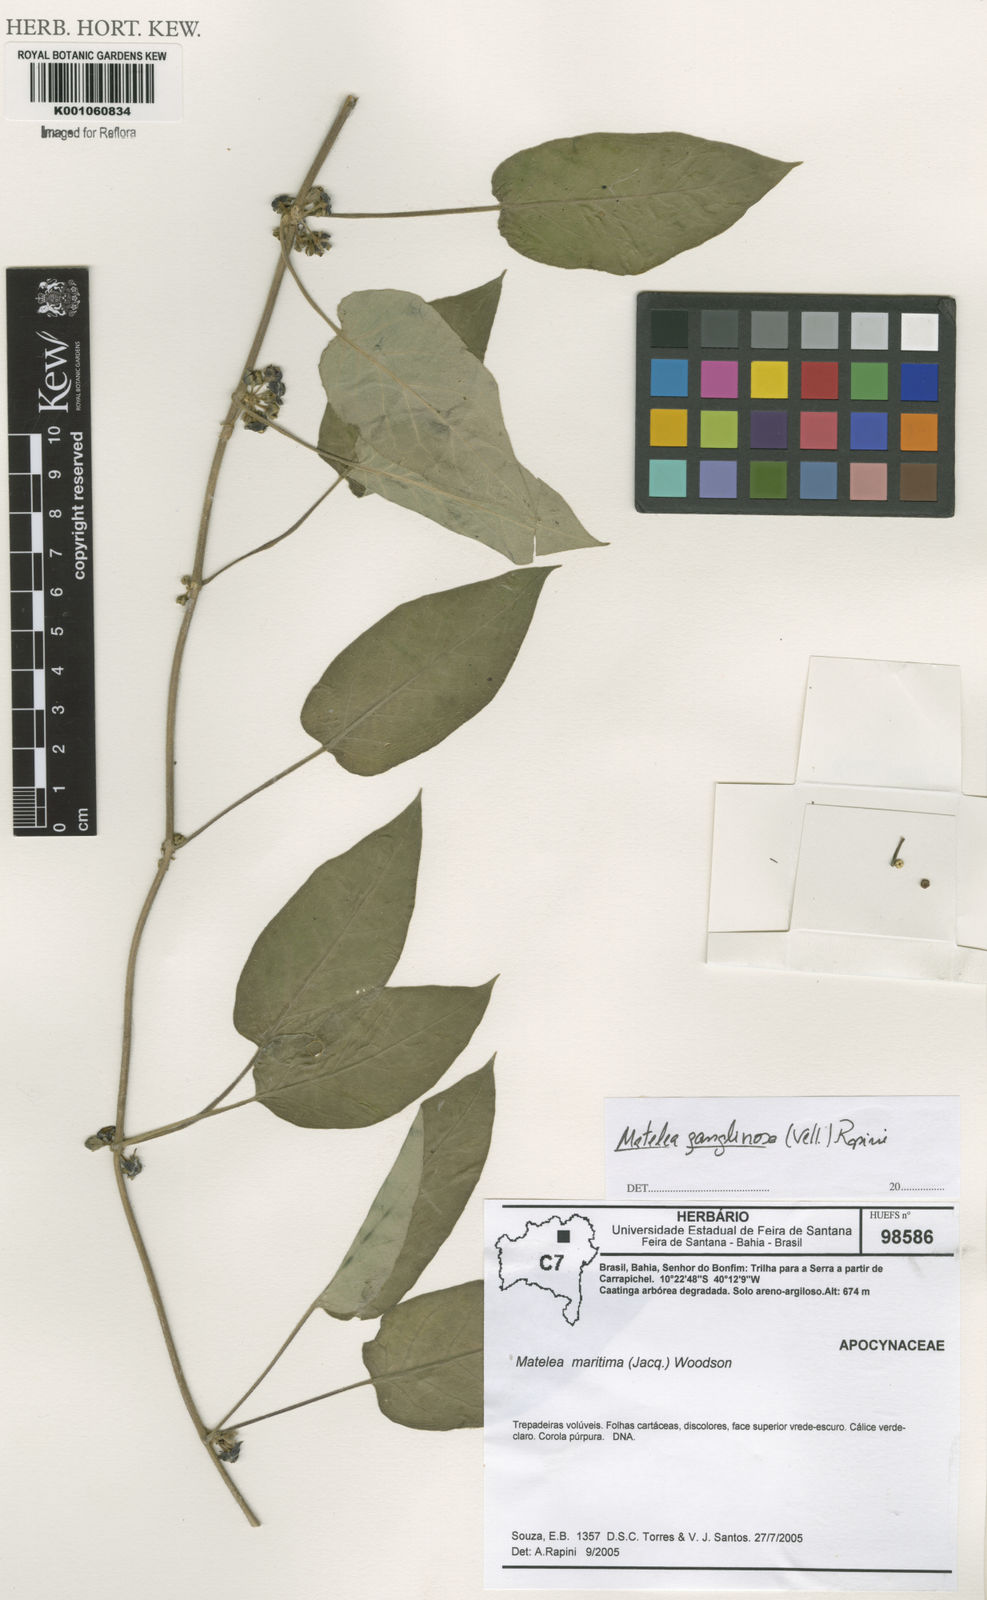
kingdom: Plantae
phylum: Tracheophyta
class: Magnoliopsida
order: Gentianales
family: Apocynaceae
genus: Ibatia
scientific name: Ibatia ganglinosa
